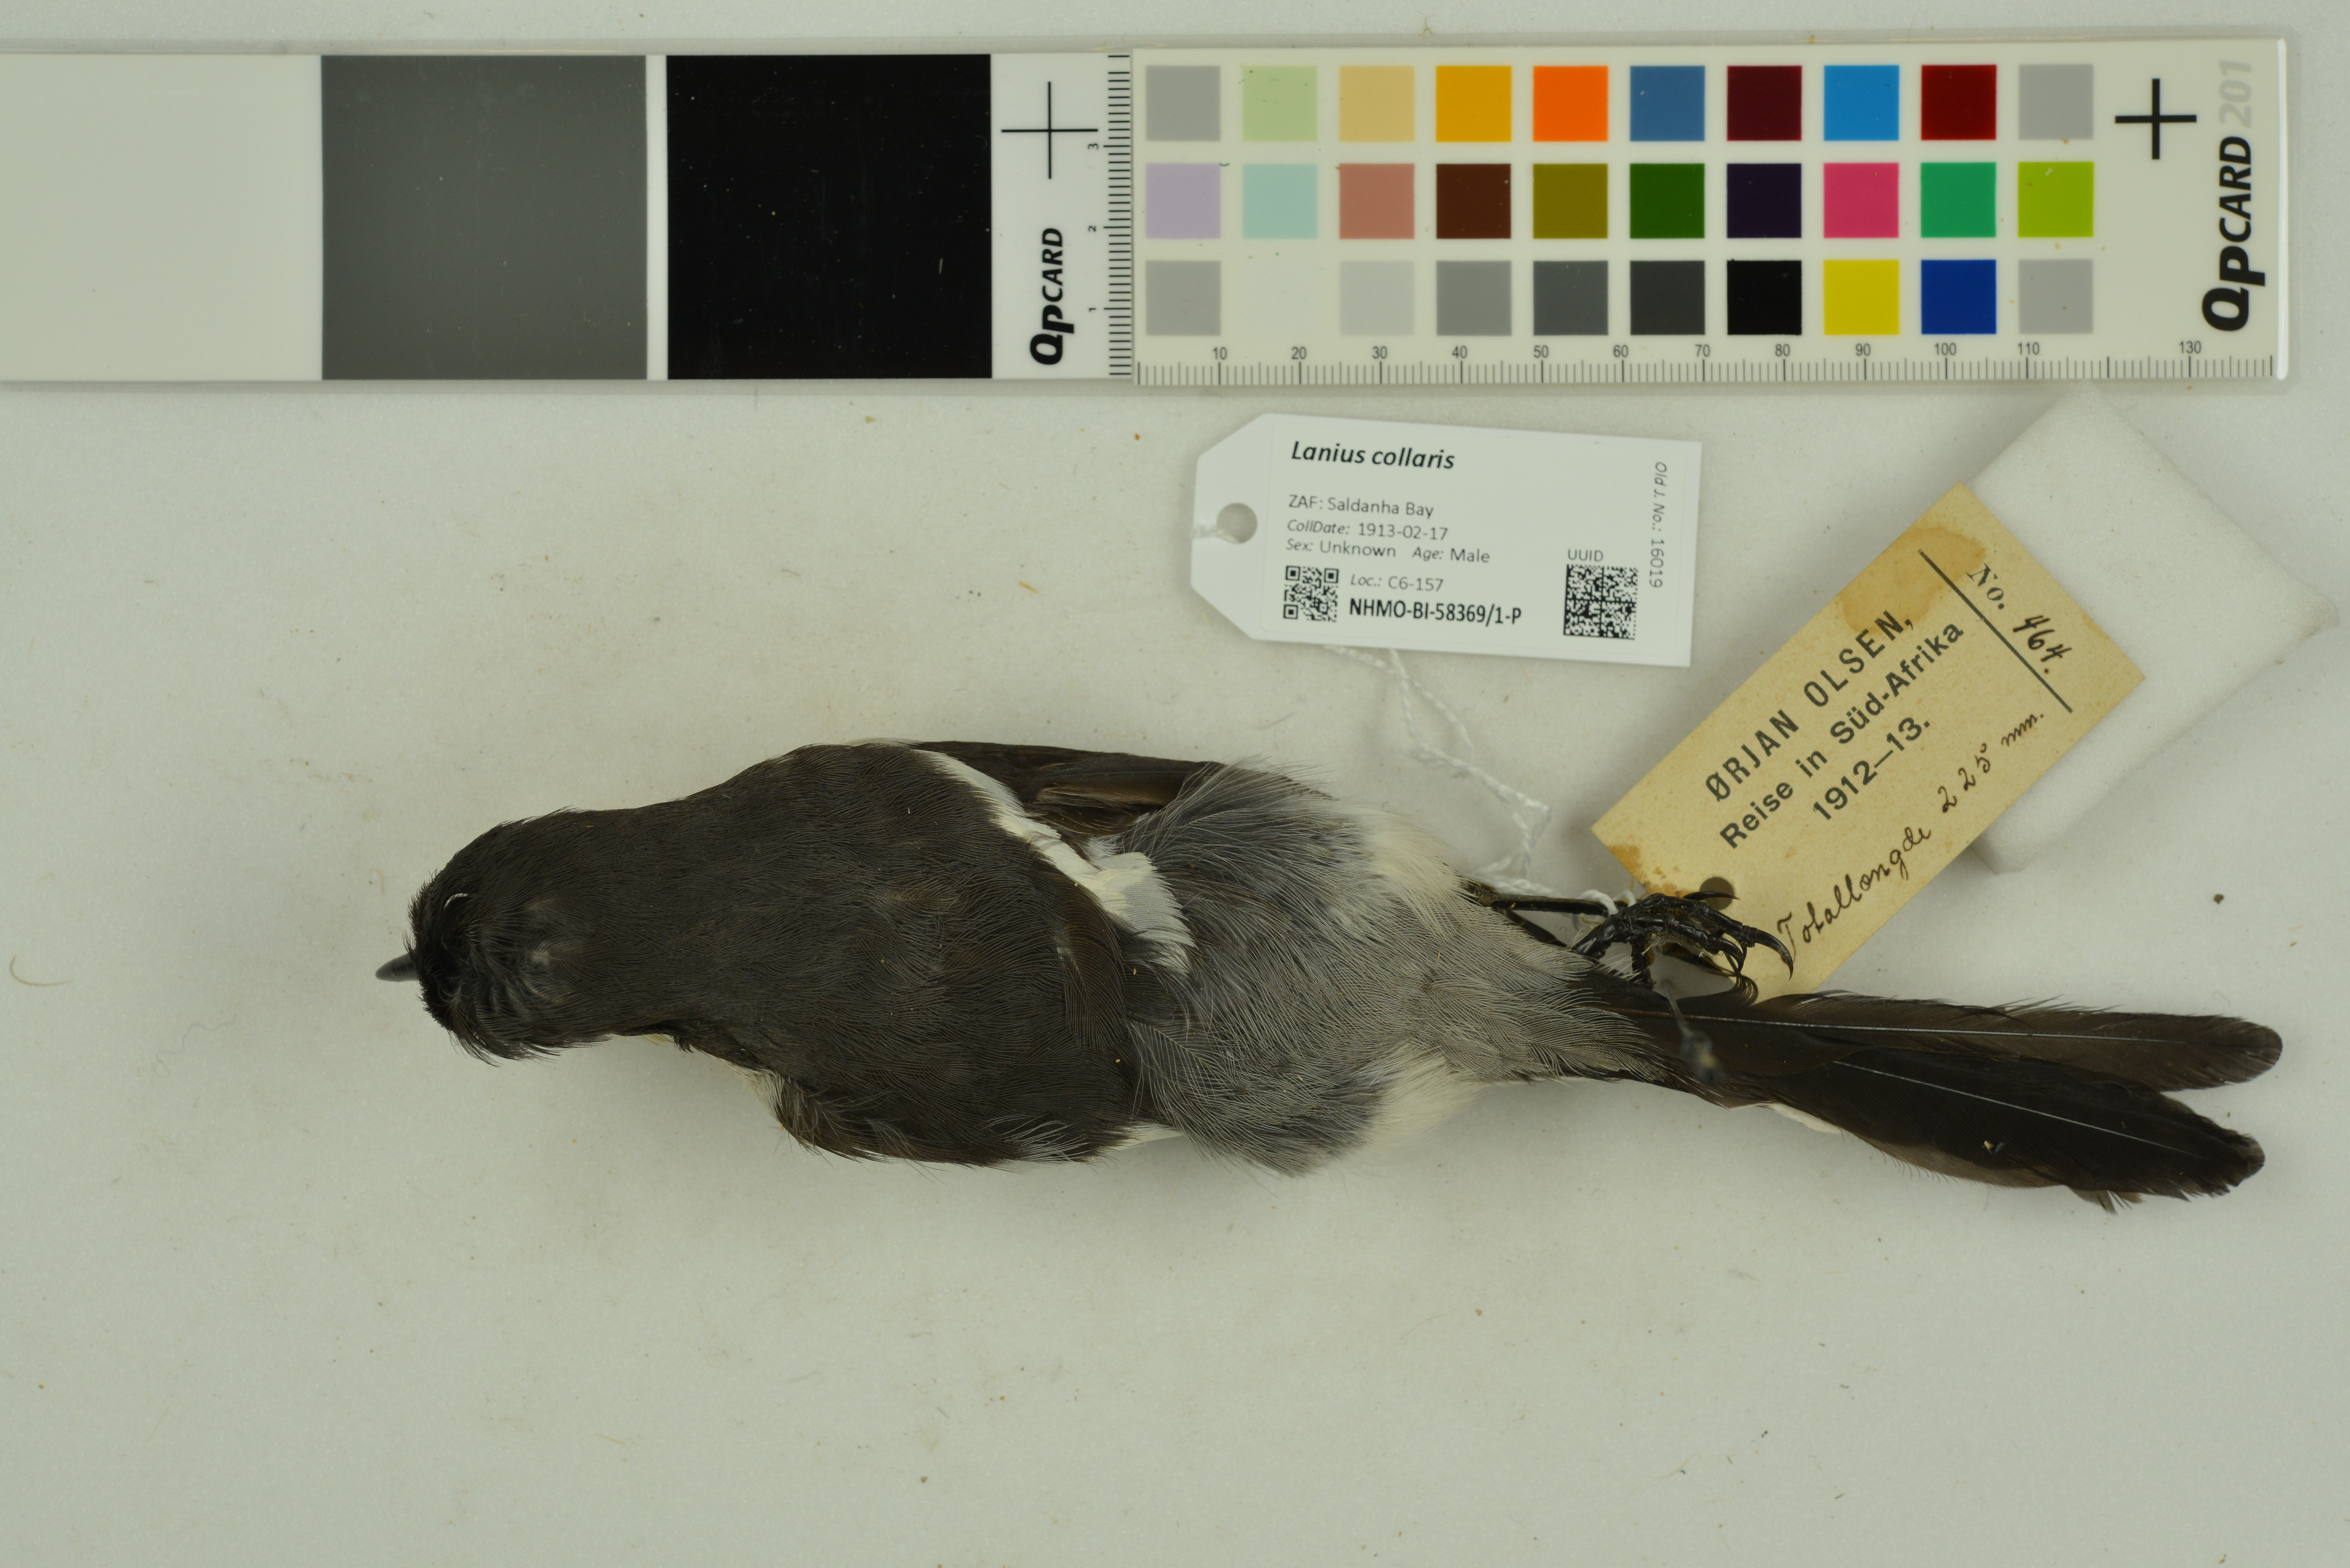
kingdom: Animalia
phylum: Chordata
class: Aves
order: Passeriformes
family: Laniidae
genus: Lanius
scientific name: Lanius collaris
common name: Southern fiscal
